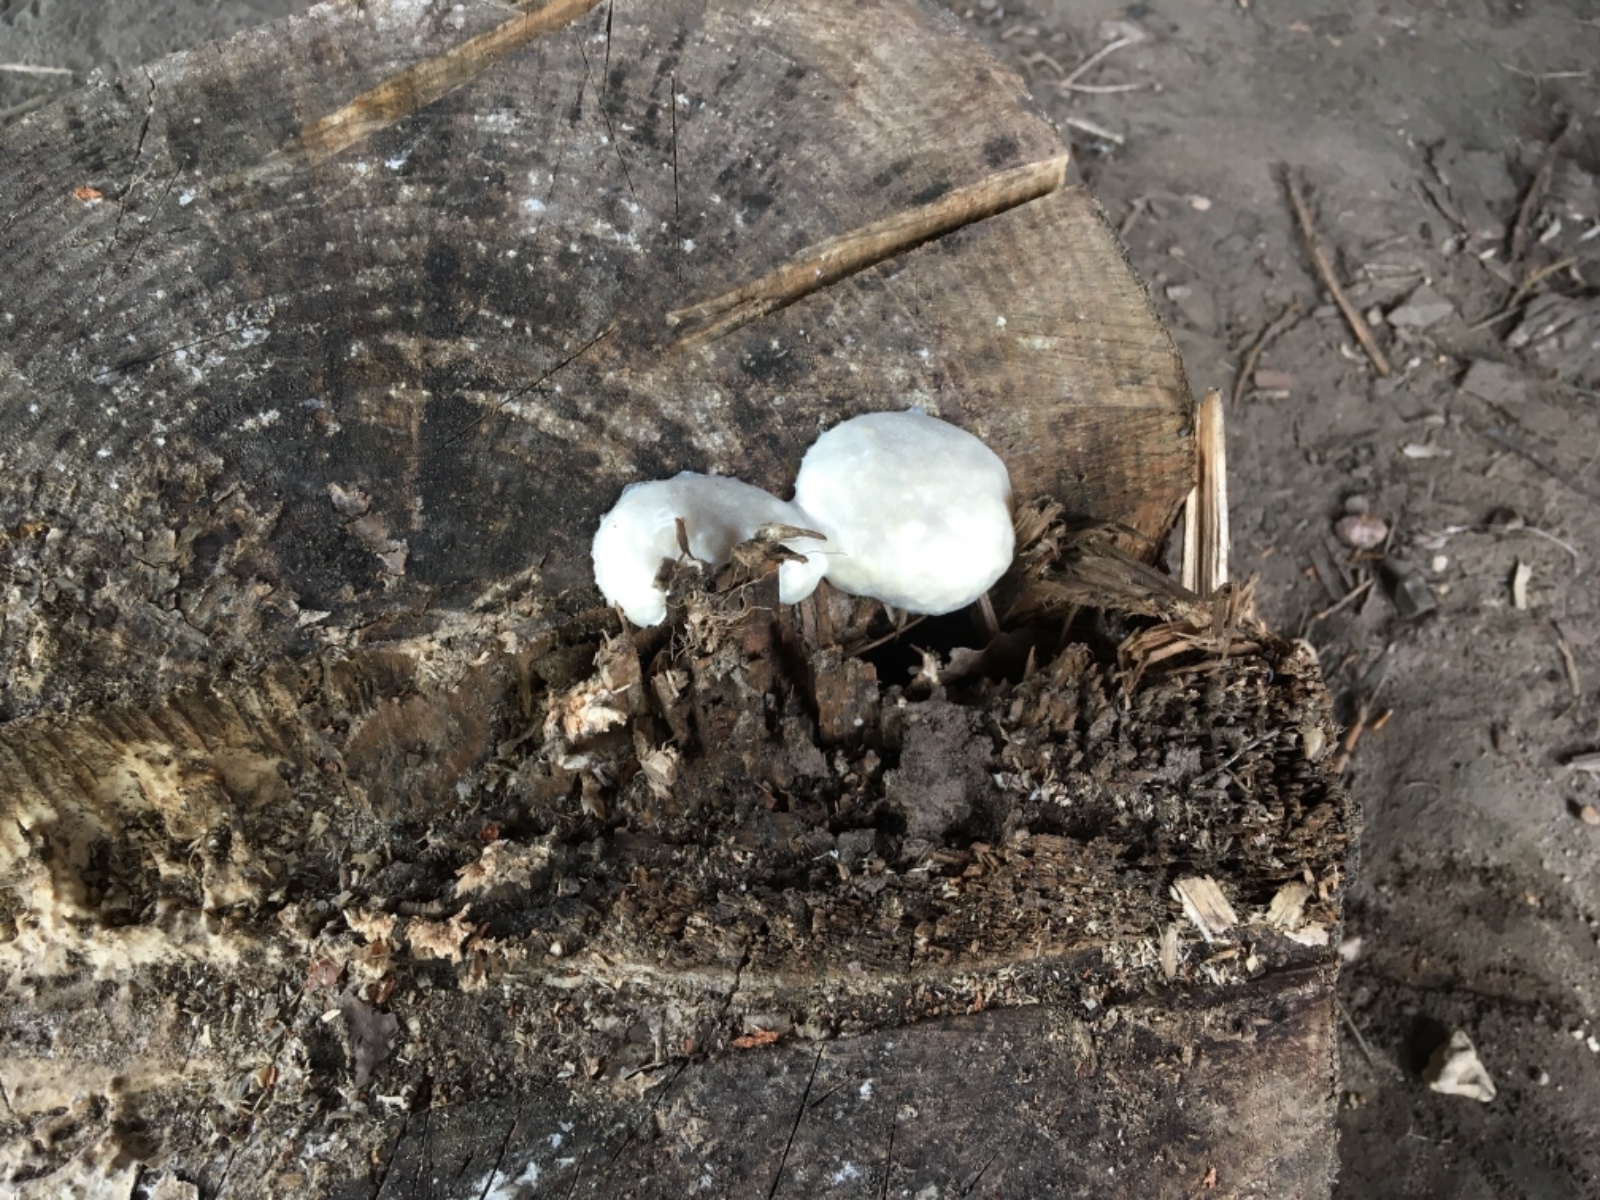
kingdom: Protozoa
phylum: Mycetozoa
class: Myxomycetes
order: Cribrariales
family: Tubiferaceae
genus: Reticularia
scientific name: Reticularia lycoperdon
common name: skinnende støvpude
